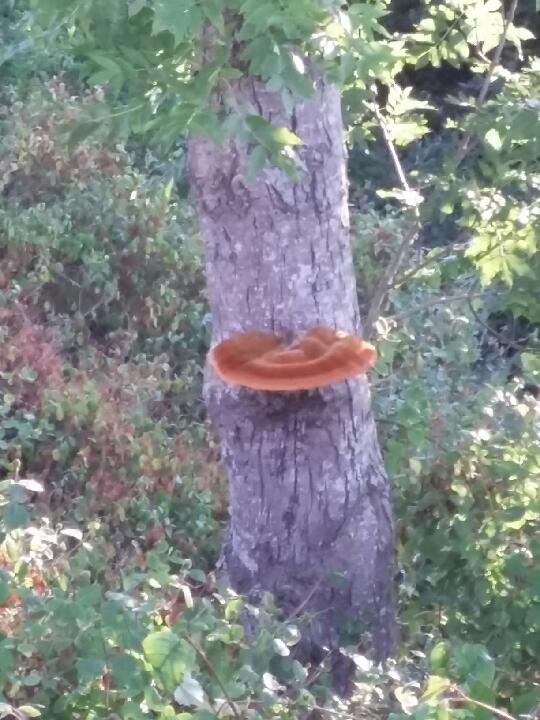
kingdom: Fungi
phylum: Basidiomycota
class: Agaricomycetes
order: Hymenochaetales
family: Hymenochaetaceae
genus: Inonotus
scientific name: Inonotus hispidus
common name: børstehåret spejlporesvamp
